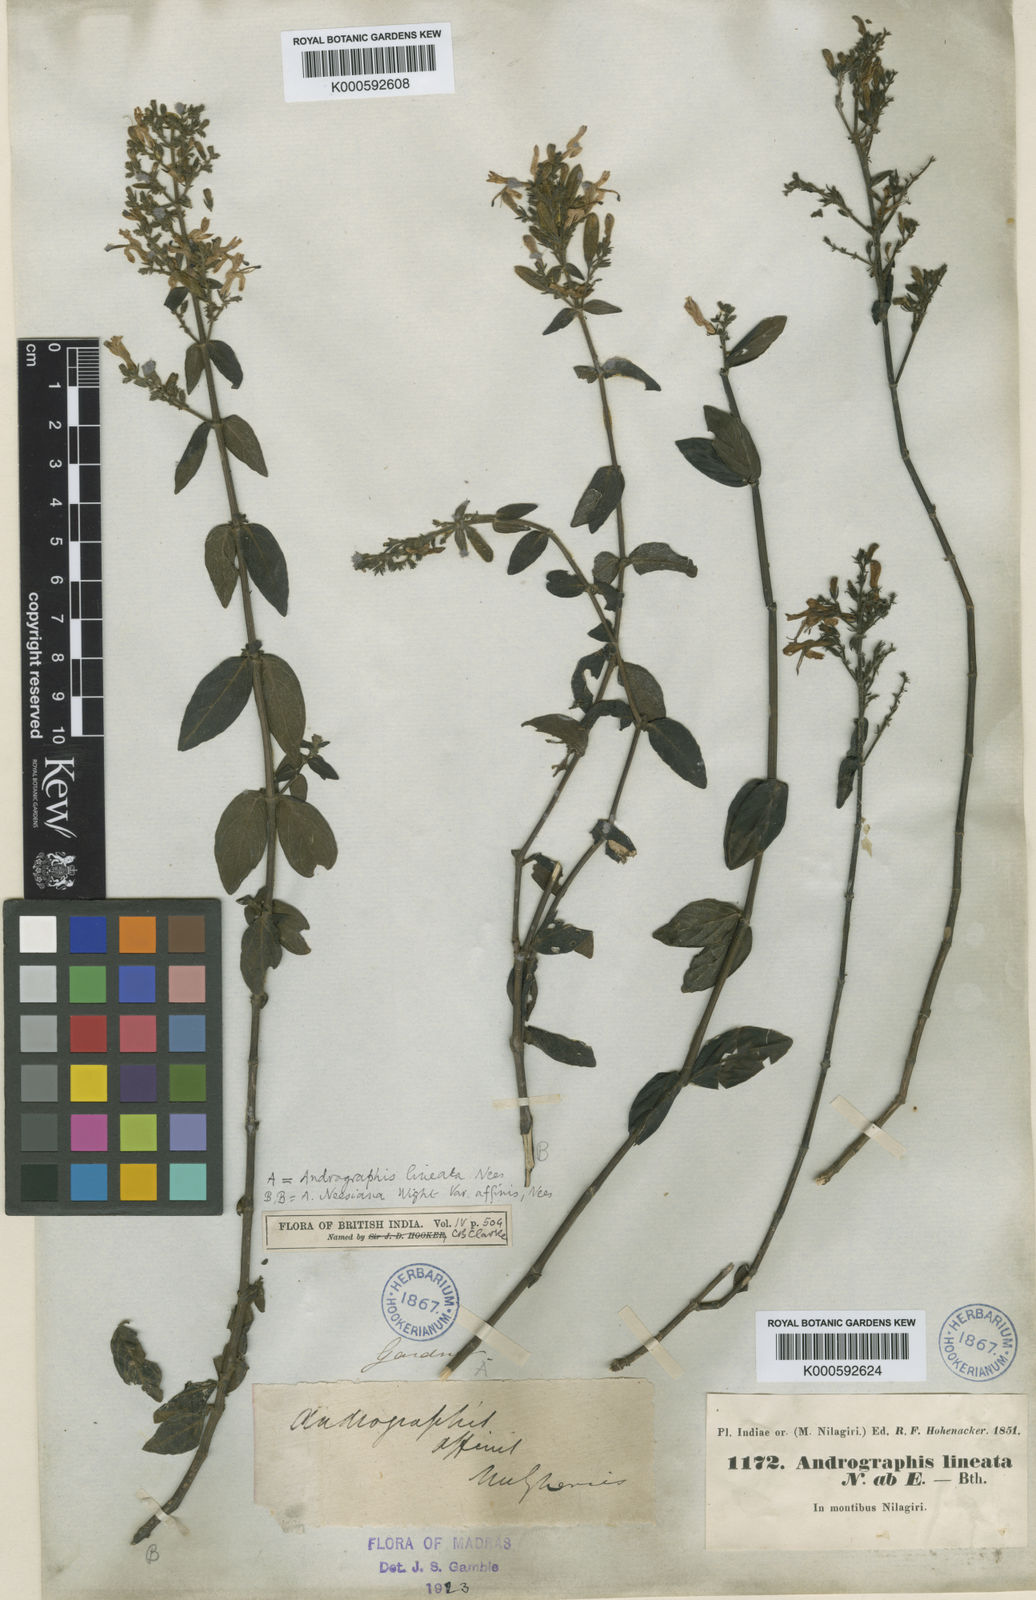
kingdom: Plantae
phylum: Tracheophyta
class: Magnoliopsida
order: Lamiales
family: Acanthaceae
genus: Andrographis
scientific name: Andrographis lineata
